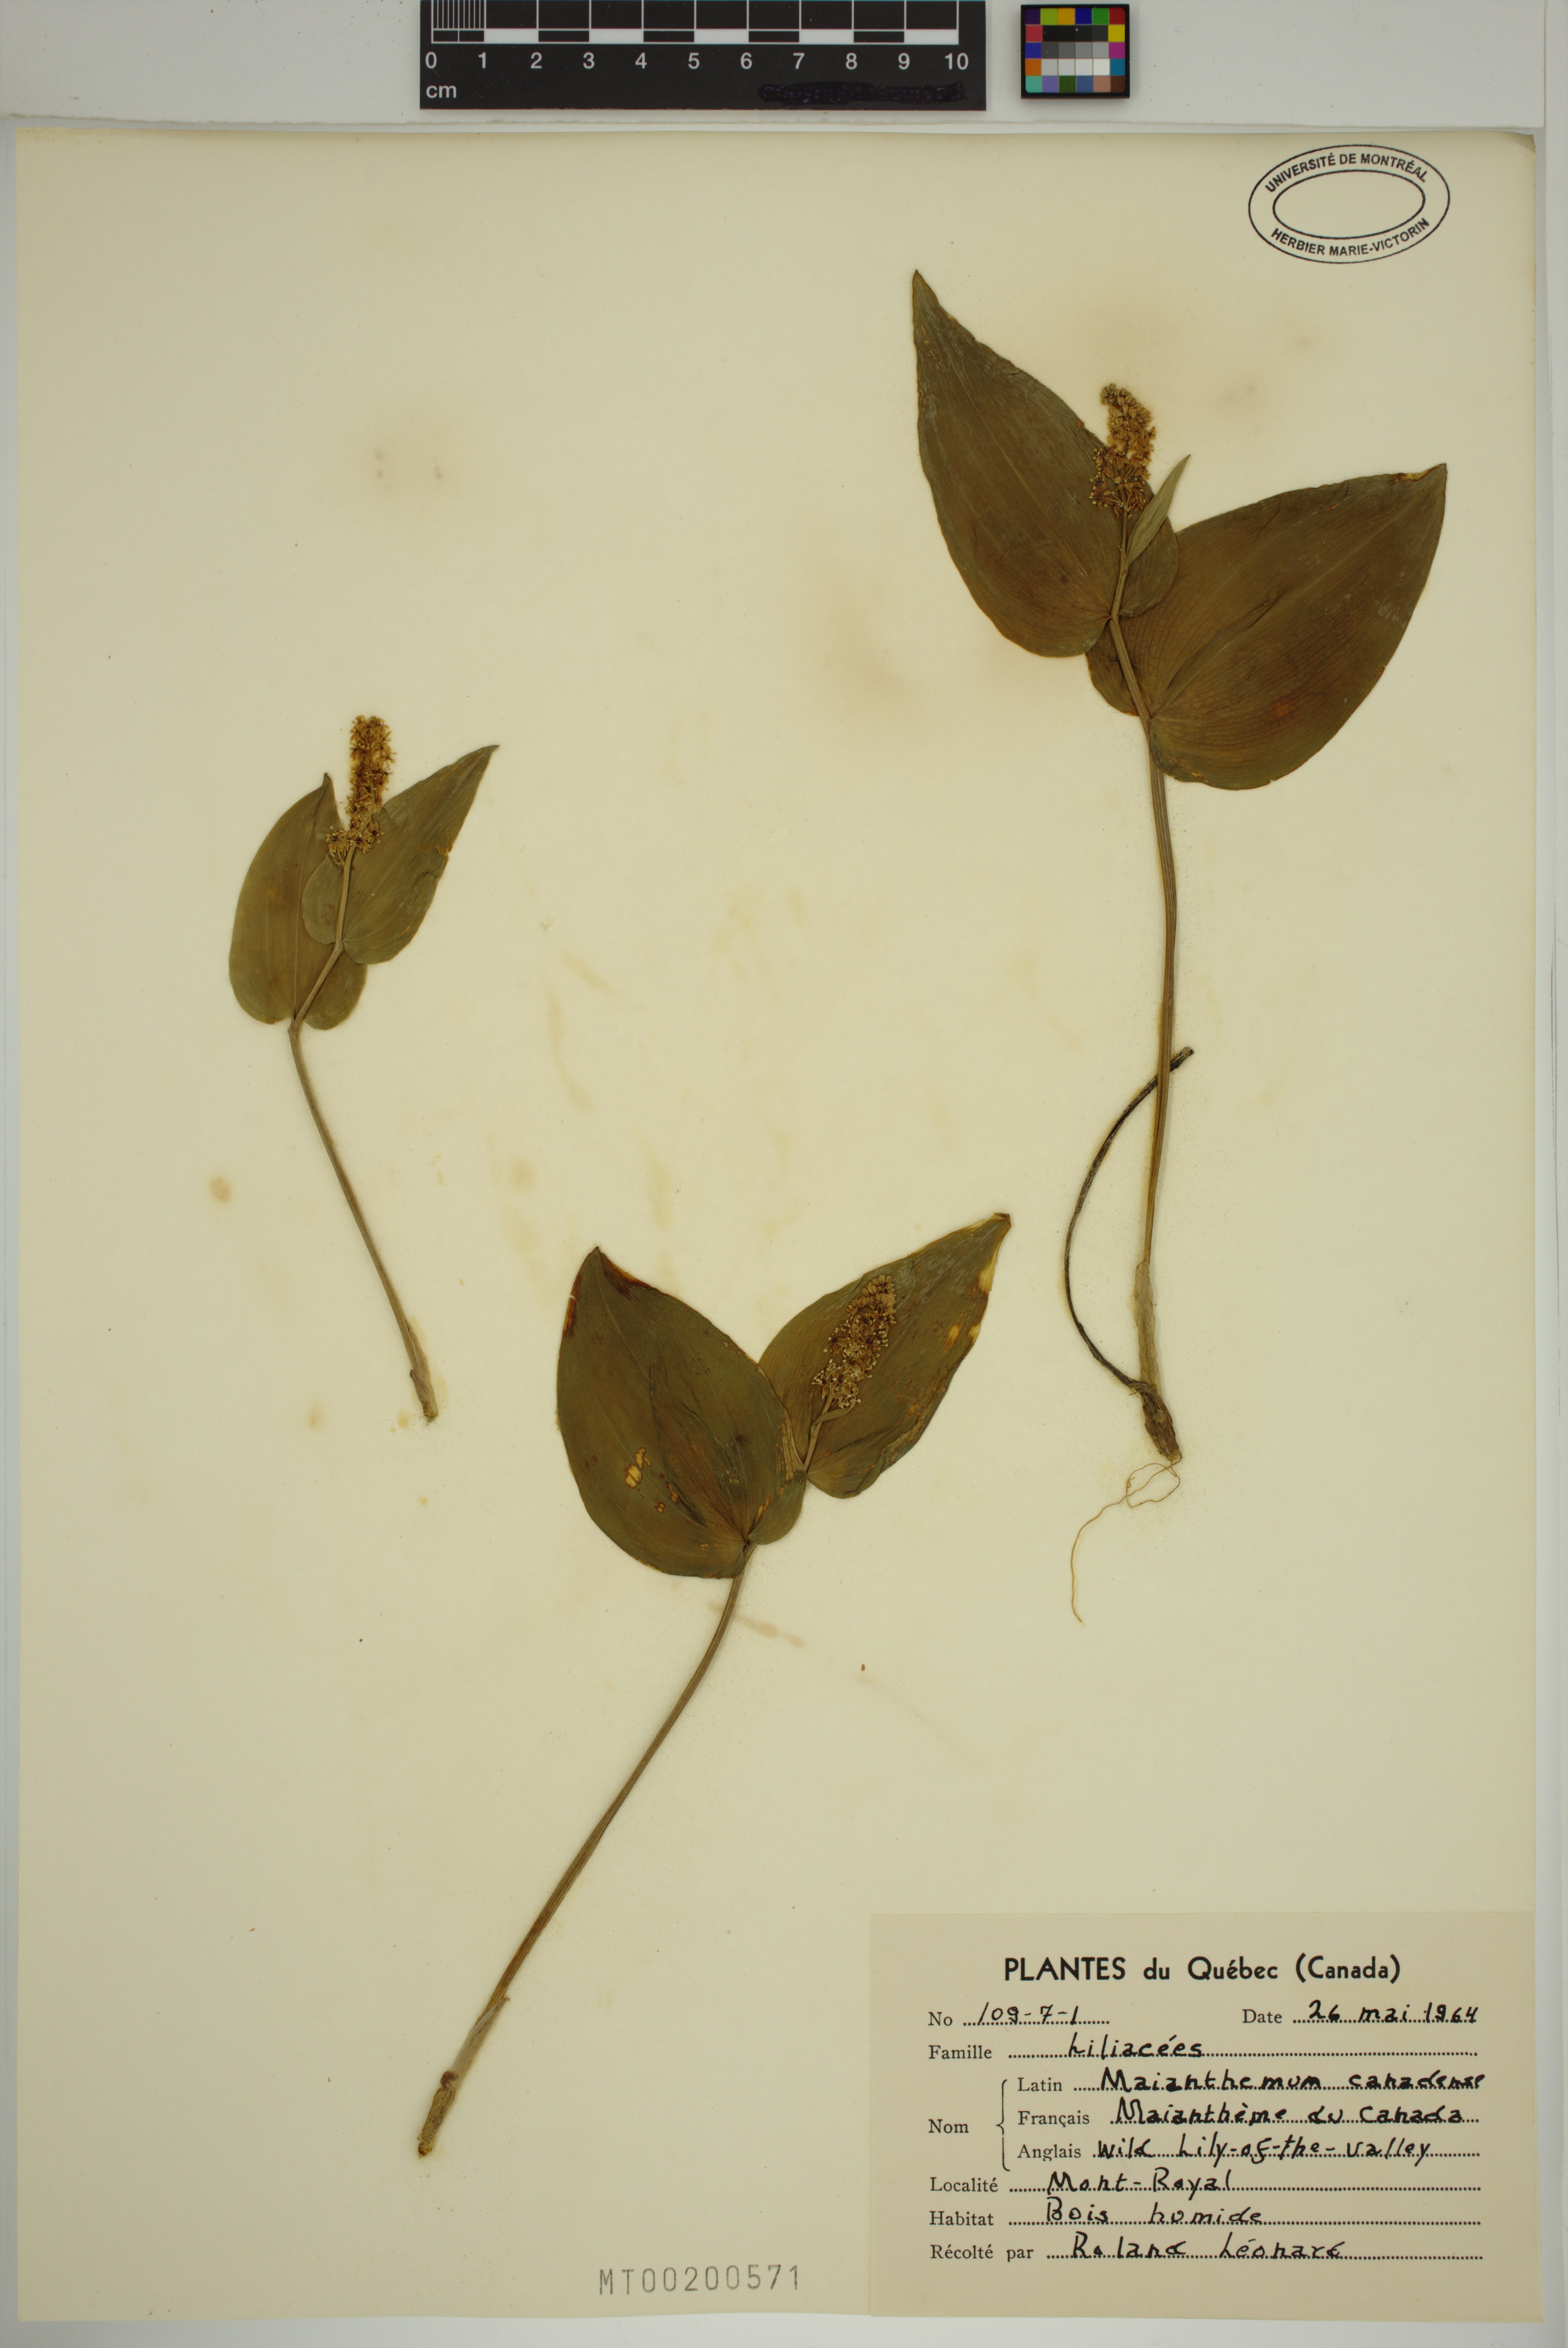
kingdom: Plantae
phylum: Tracheophyta
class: Liliopsida
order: Asparagales
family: Asparagaceae
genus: Maianthemum
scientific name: Maianthemum canadense
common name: False lily-of-the-valley
